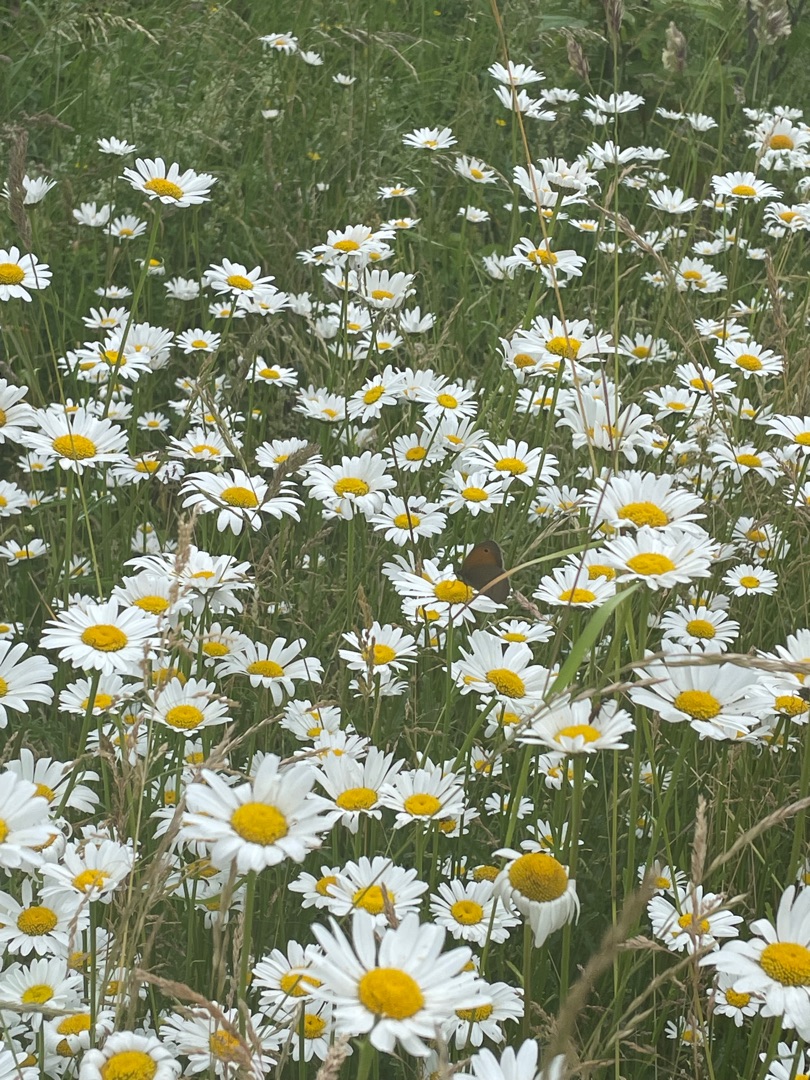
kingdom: Animalia
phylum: Arthropoda
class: Insecta
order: Lepidoptera
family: Nymphalidae
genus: Maniola
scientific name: Maniola jurtina
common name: Græsrandøje
